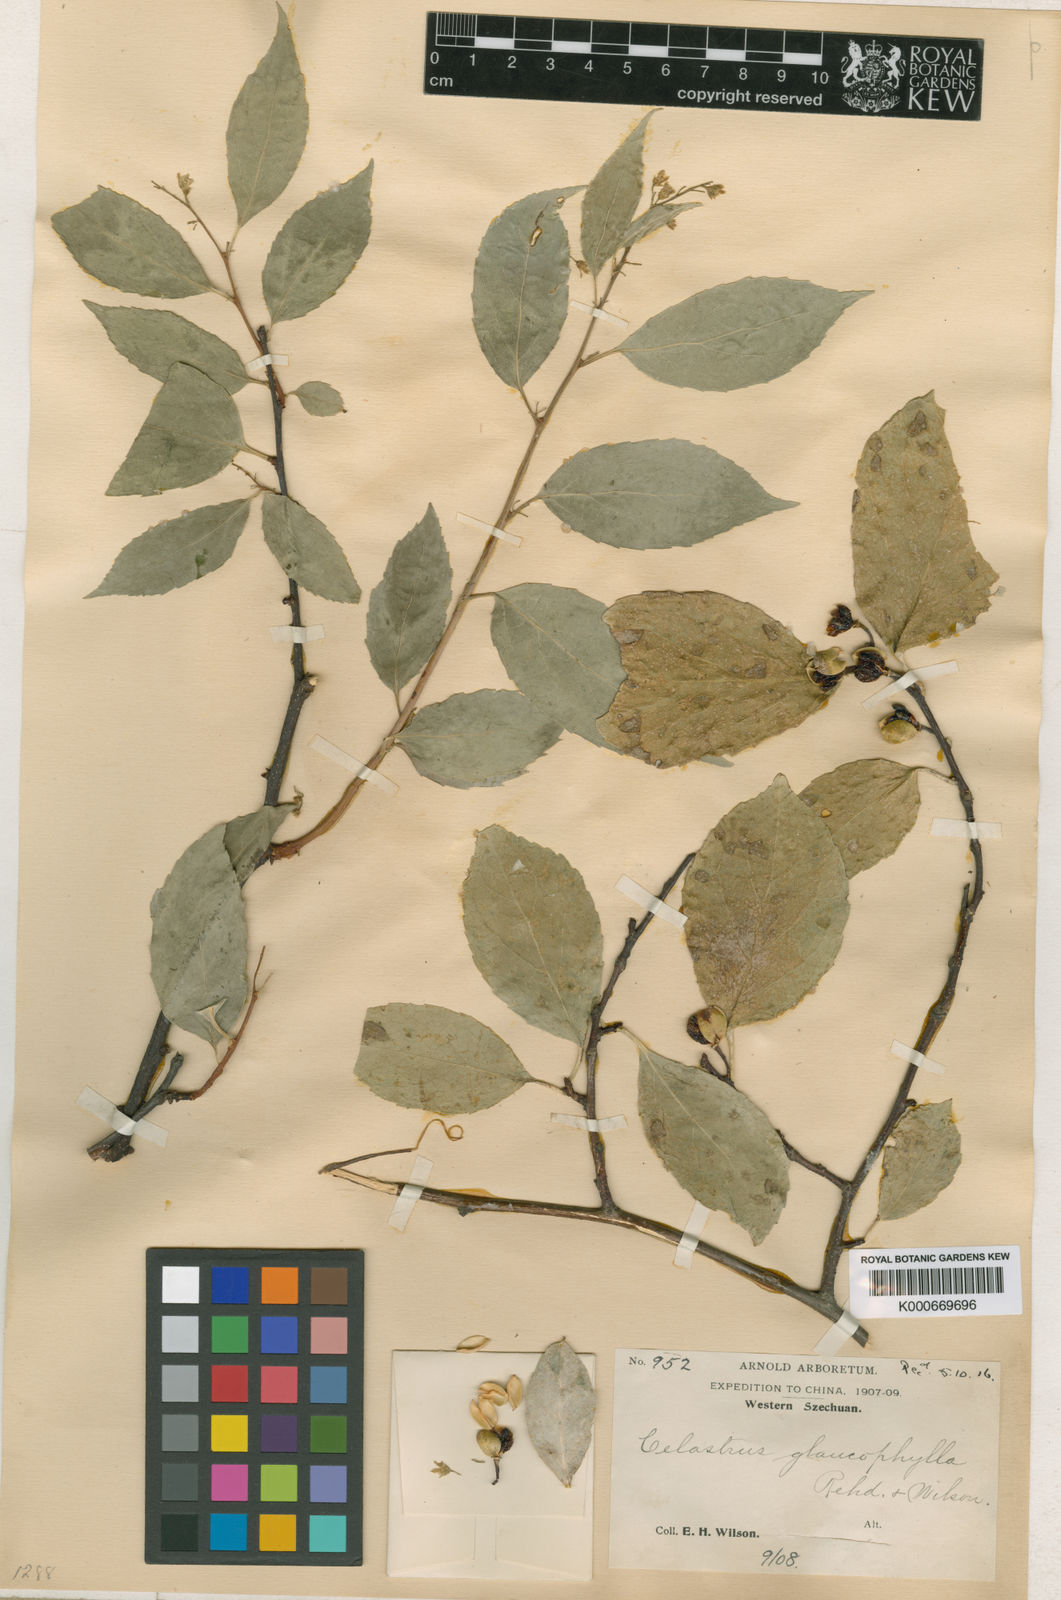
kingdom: Plantae
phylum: Tracheophyta
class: Magnoliopsida
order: Celastrales
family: Celastraceae
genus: Celastrus
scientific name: Celastrus hookeri
